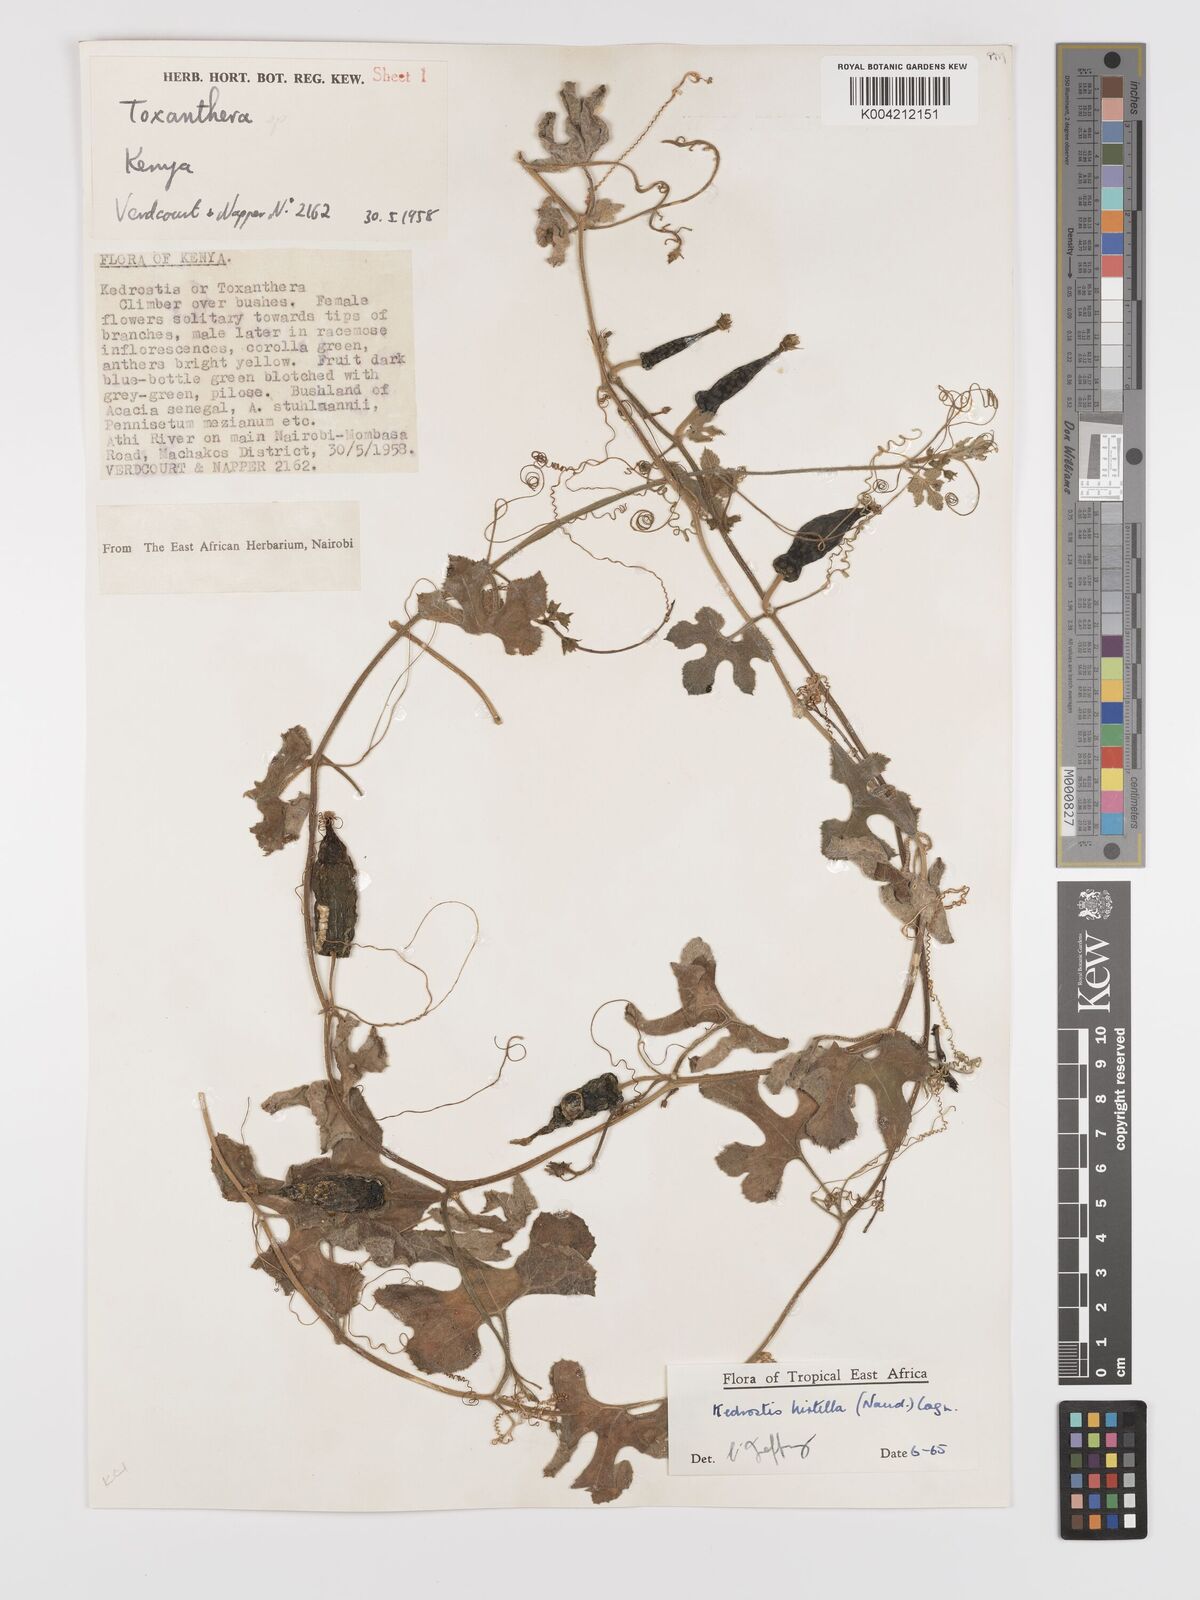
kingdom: Plantae
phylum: Tracheophyta
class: Magnoliopsida
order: Cucurbitales
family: Cucurbitaceae
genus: Kedrostis
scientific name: Kedrostis leloja
